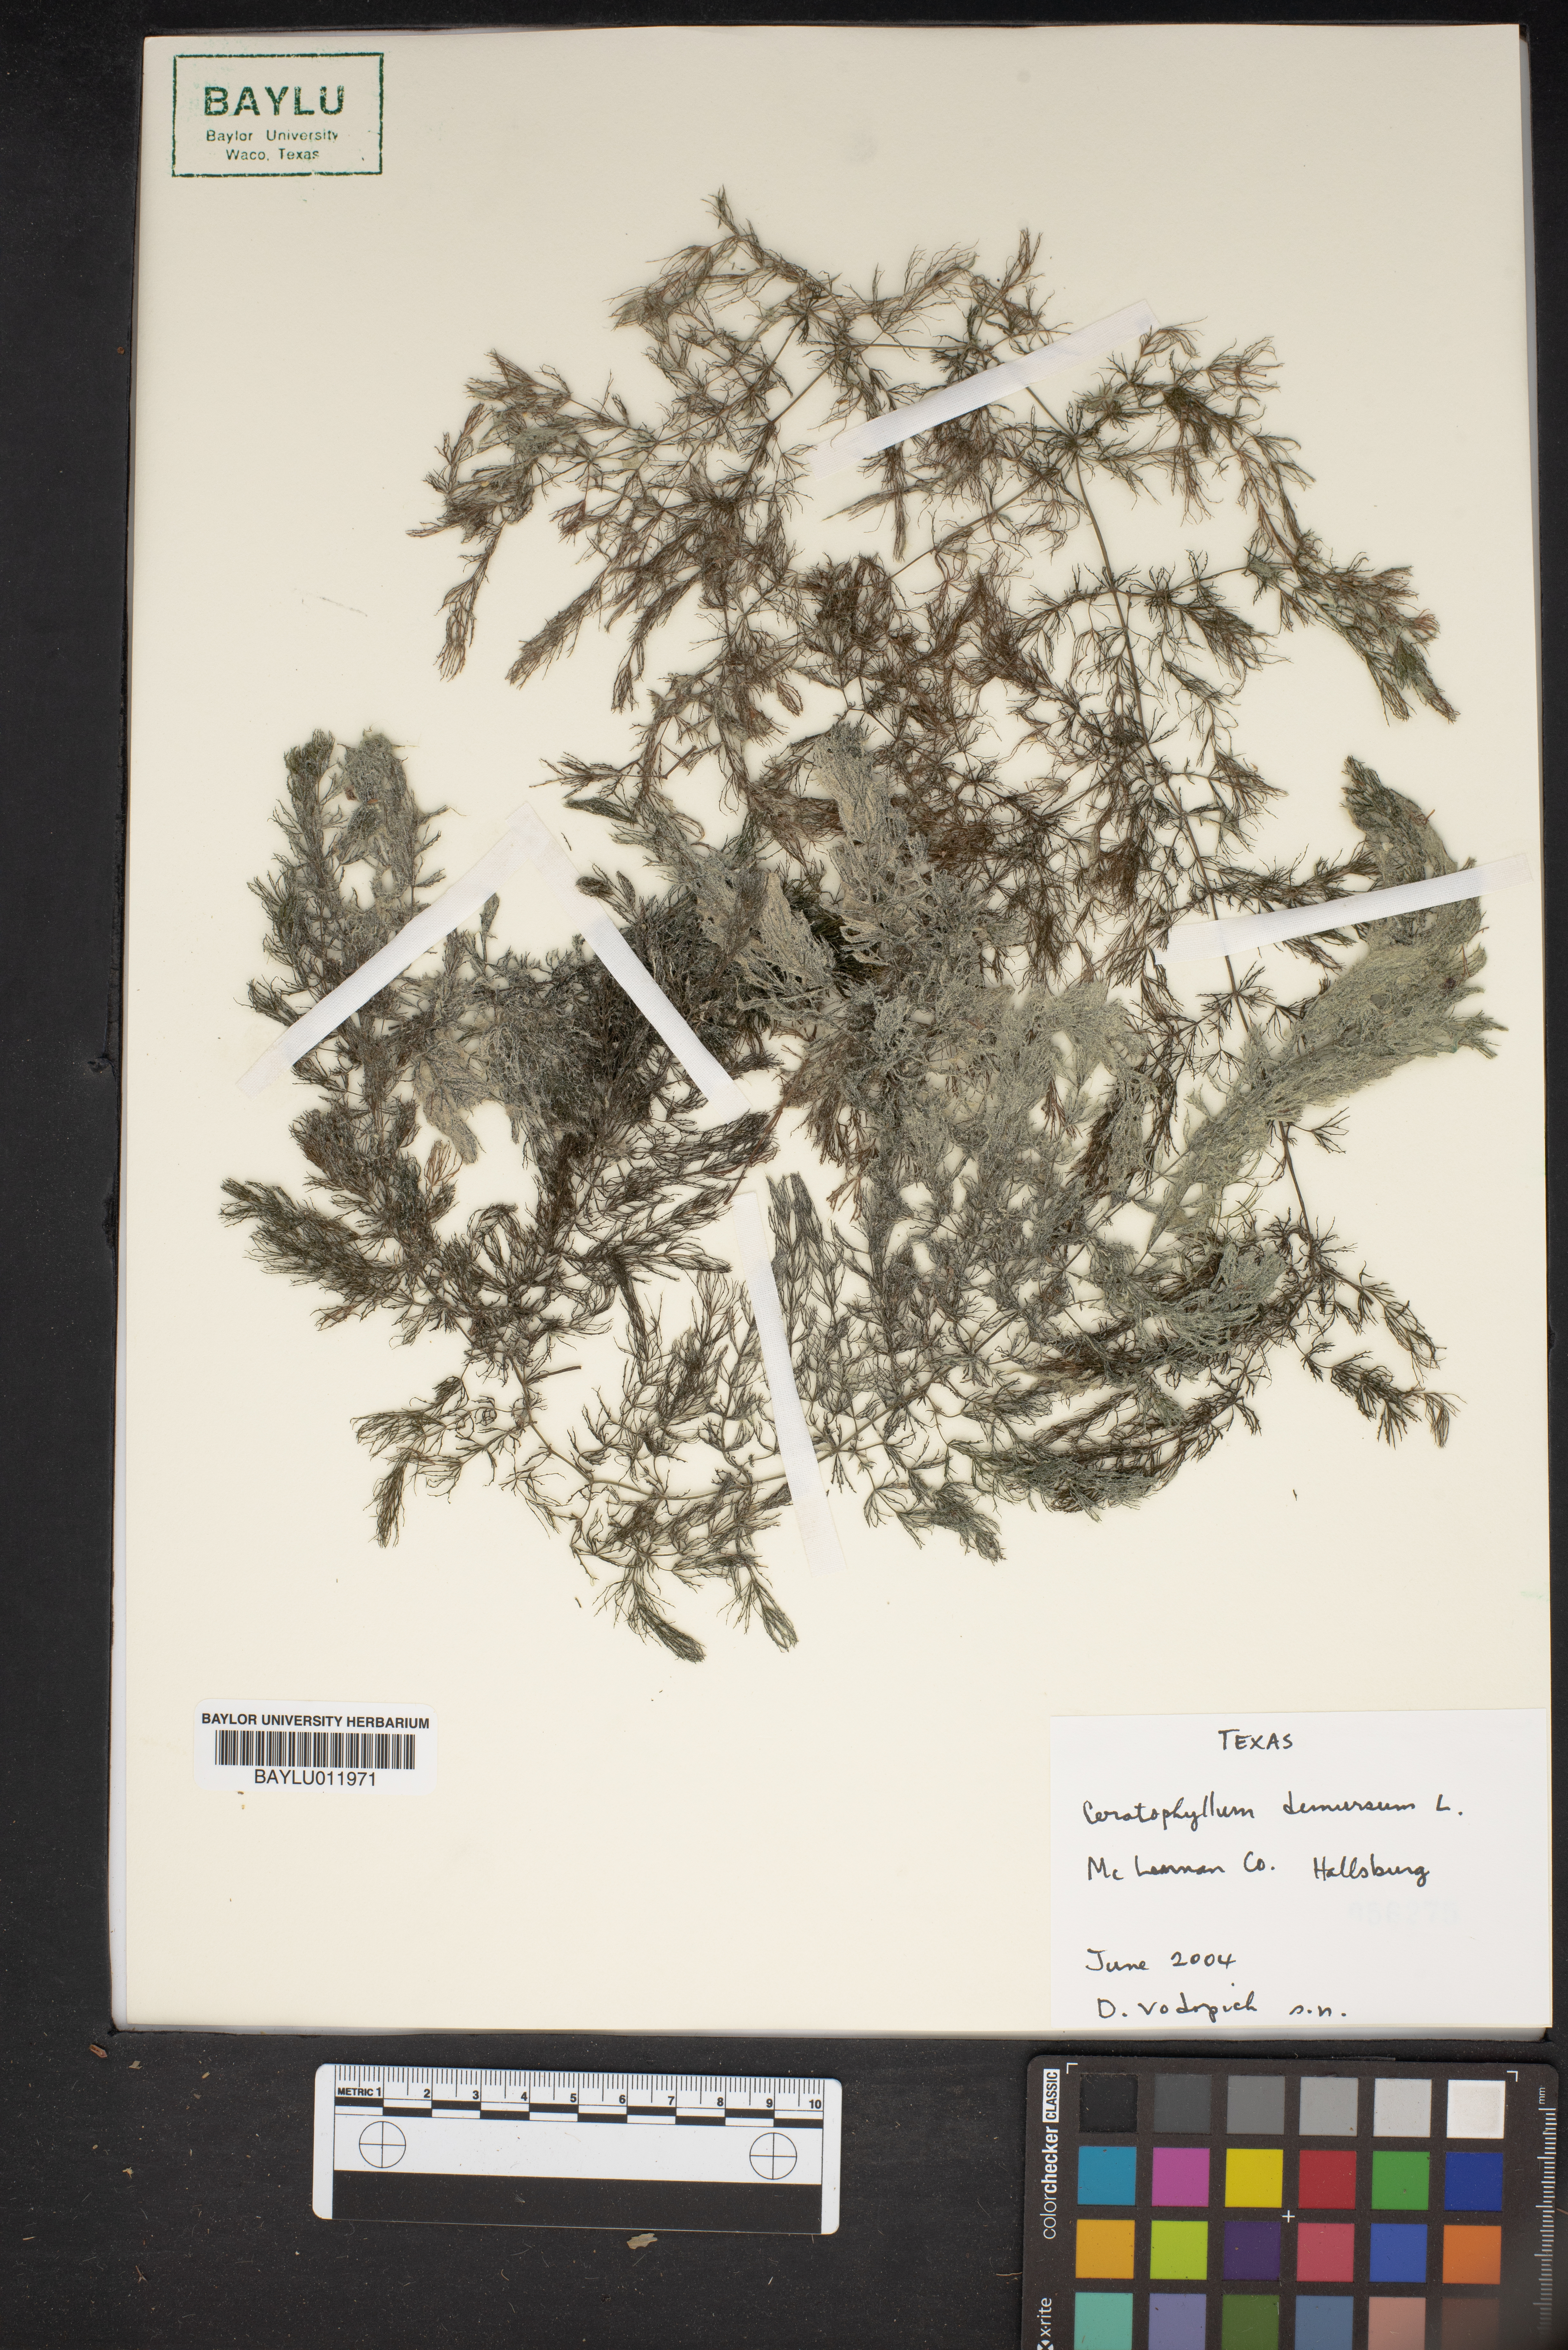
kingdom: Plantae
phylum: Tracheophyta
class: Magnoliopsida
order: Ceratophyllales
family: Ceratophyllaceae
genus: Ceratophyllum
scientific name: Ceratophyllum demersum
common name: Rigid hornwort
